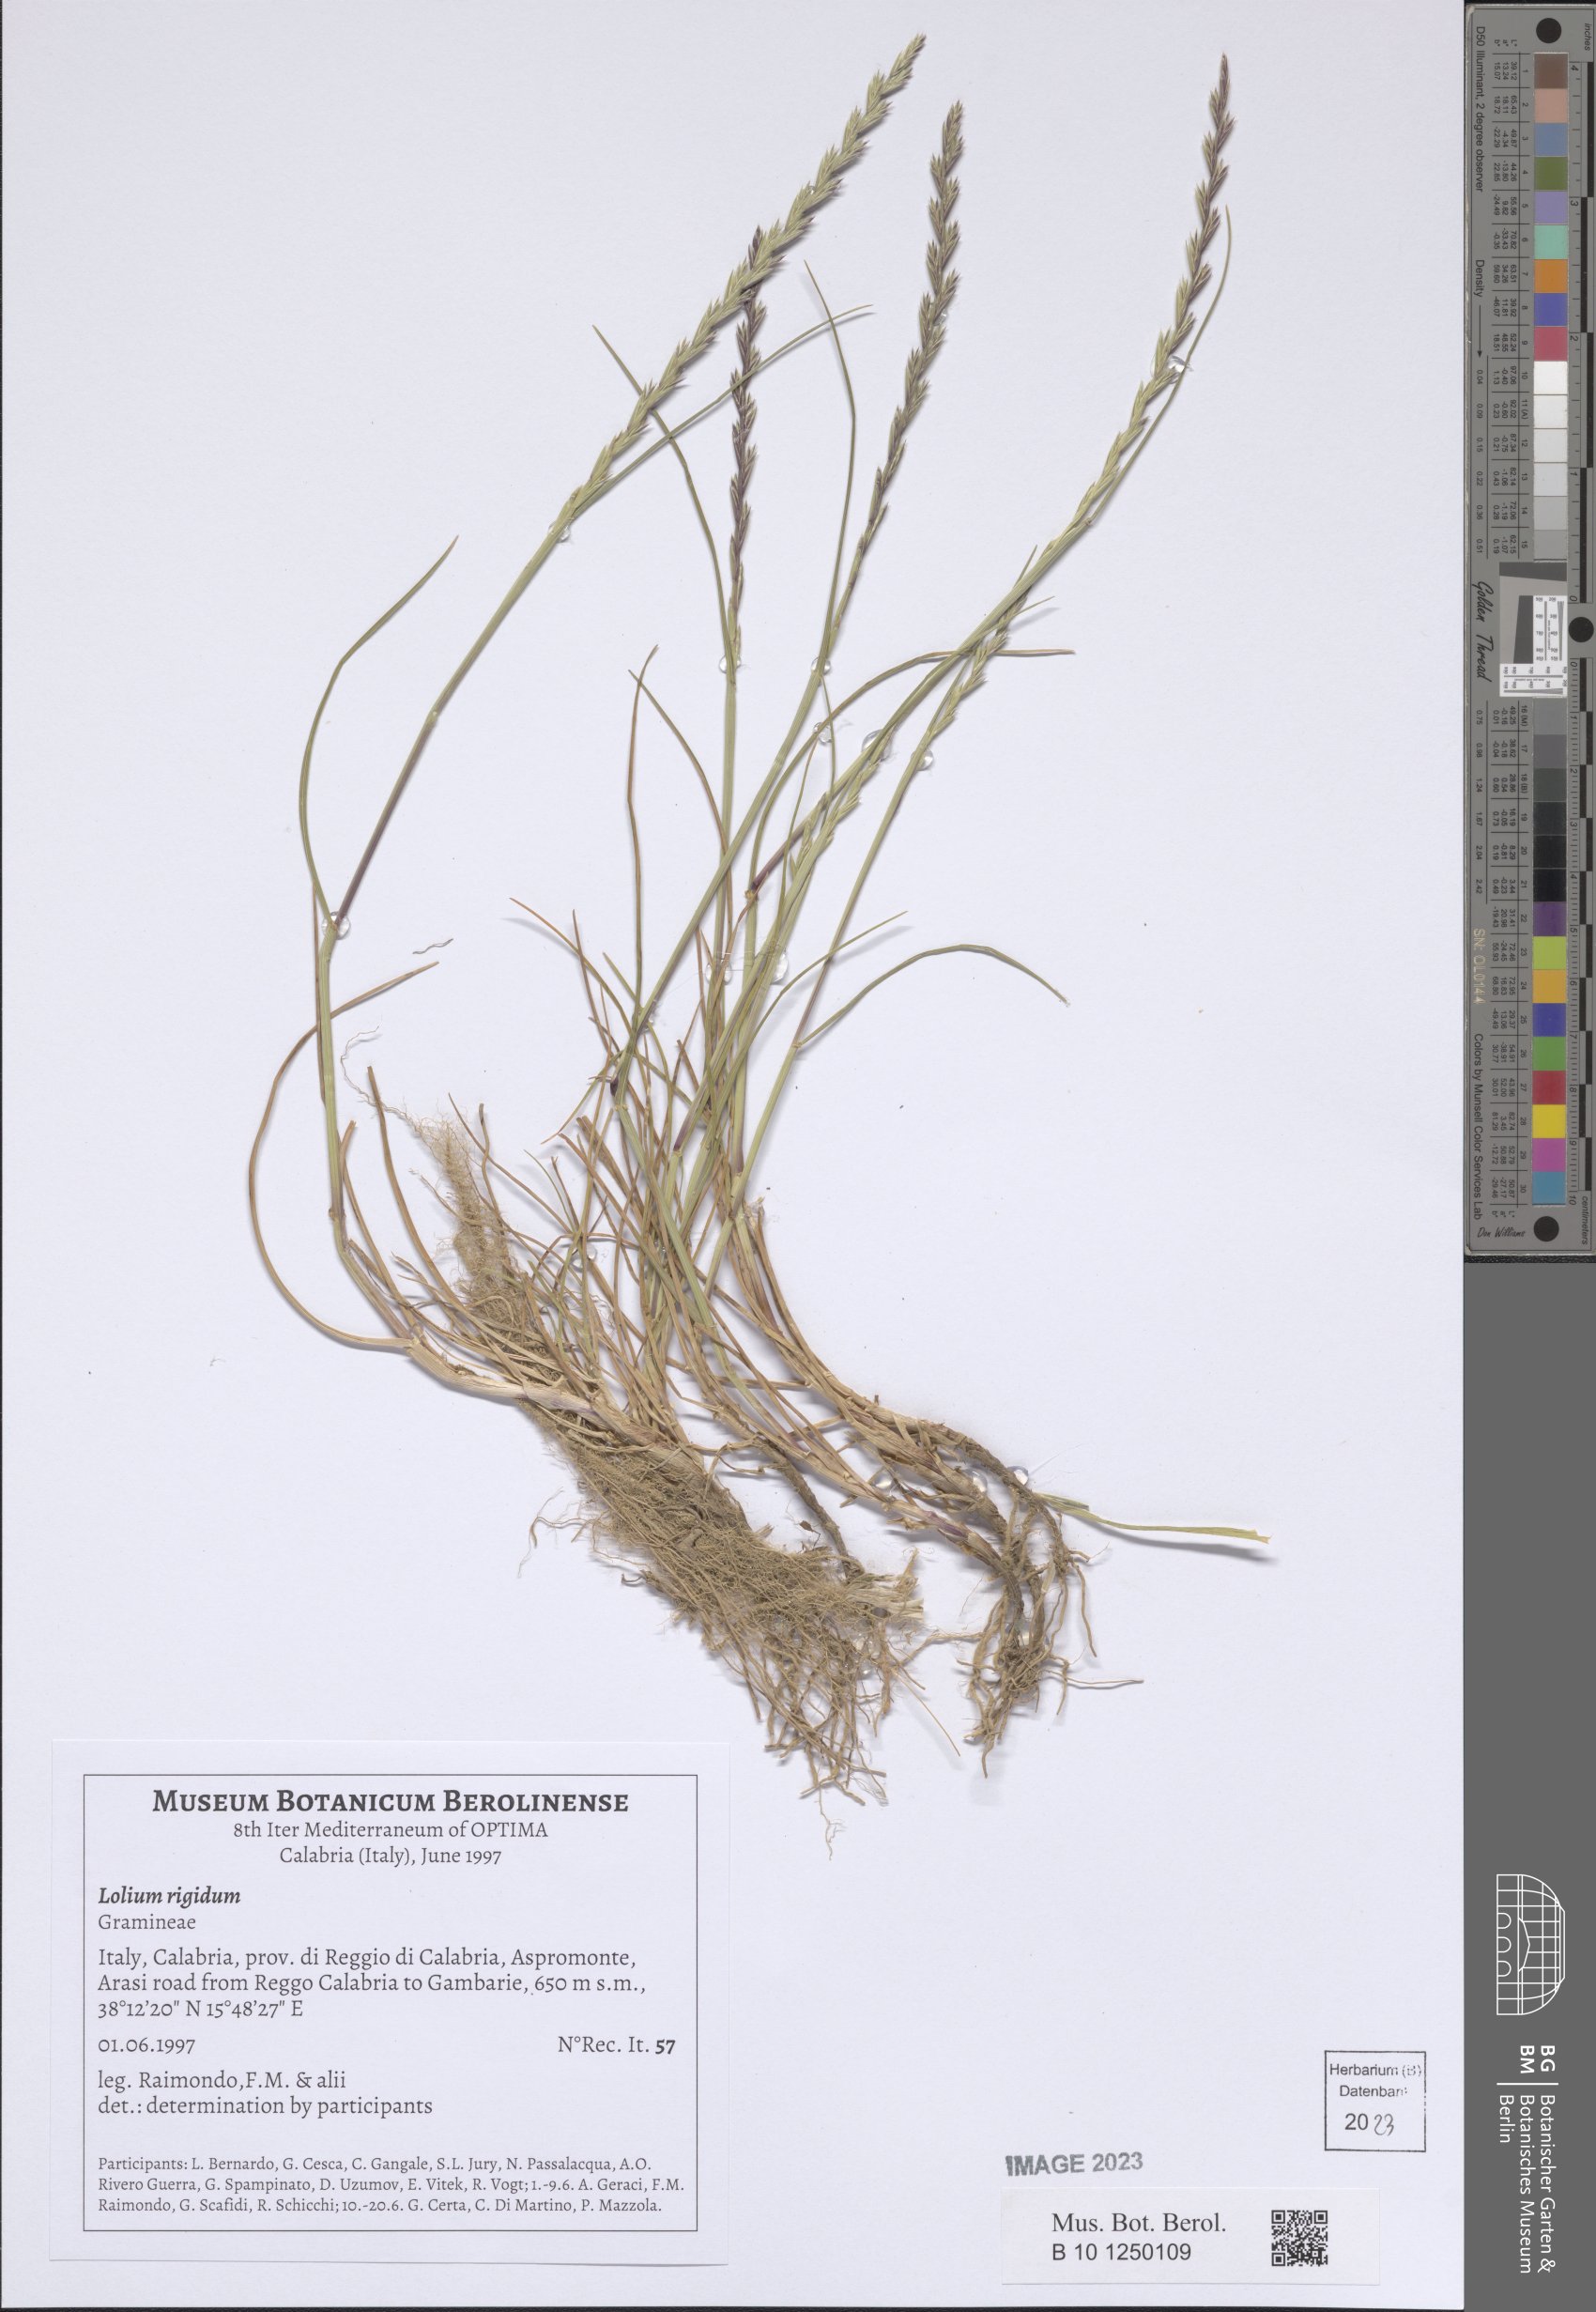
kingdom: Plantae
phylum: Tracheophyta
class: Liliopsida
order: Poales
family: Poaceae
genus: Lolium
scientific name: Lolium rigidum
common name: Wimmera ryegrass
